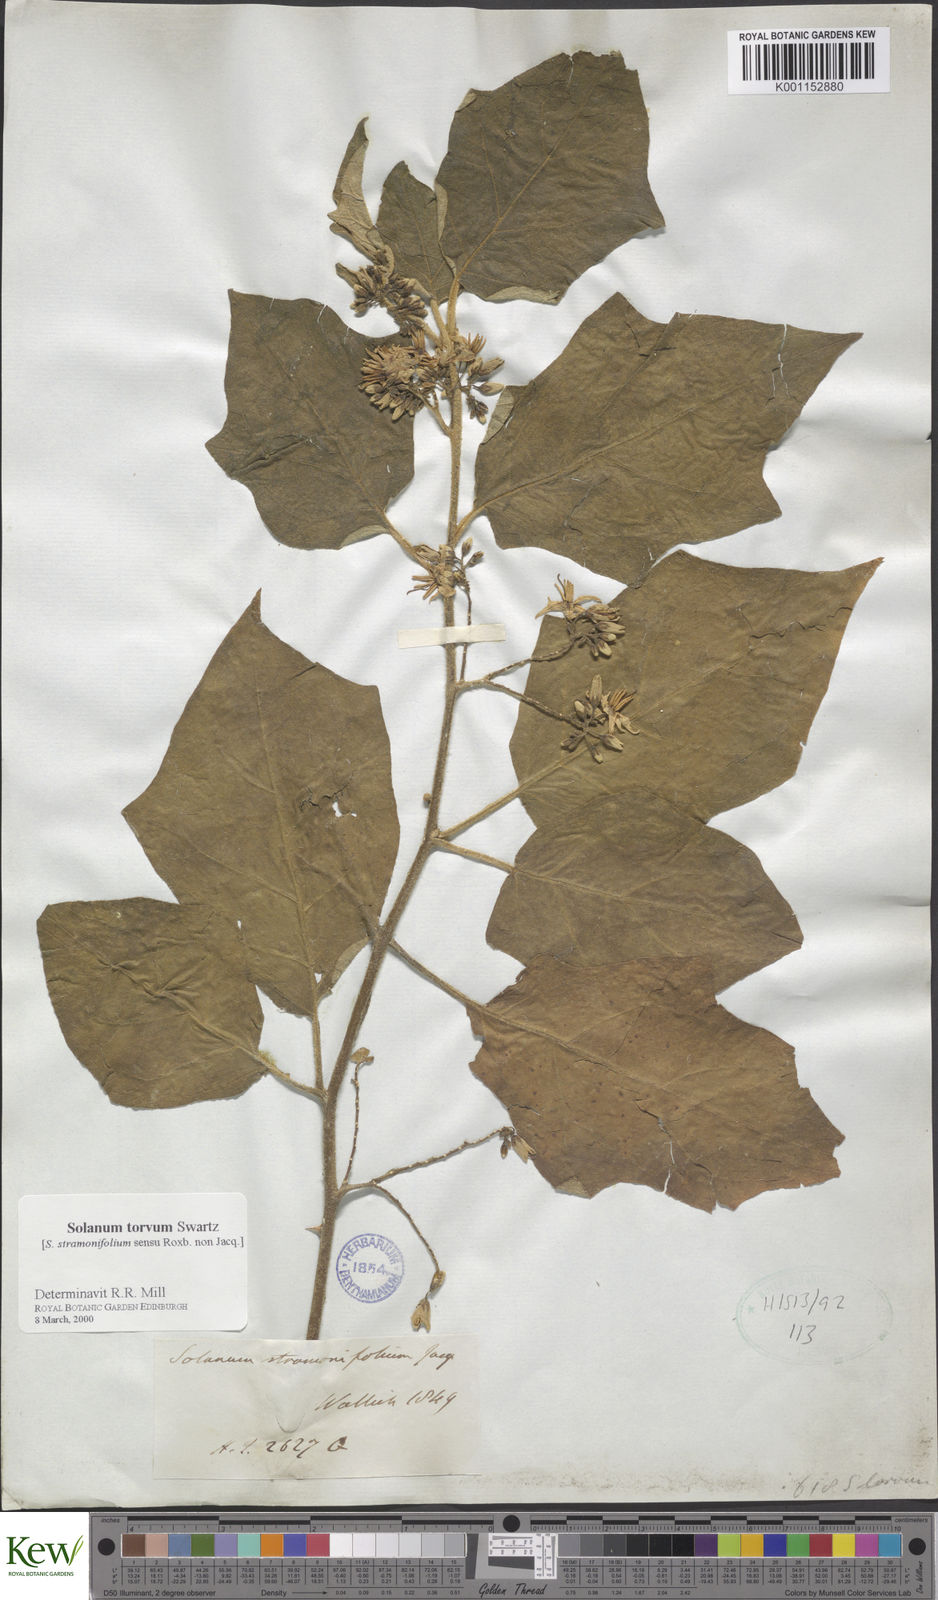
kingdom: Plantae
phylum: Tracheophyta
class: Magnoliopsida
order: Solanales
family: Solanaceae
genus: Solanum
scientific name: Solanum torvum
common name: Turkey berry
